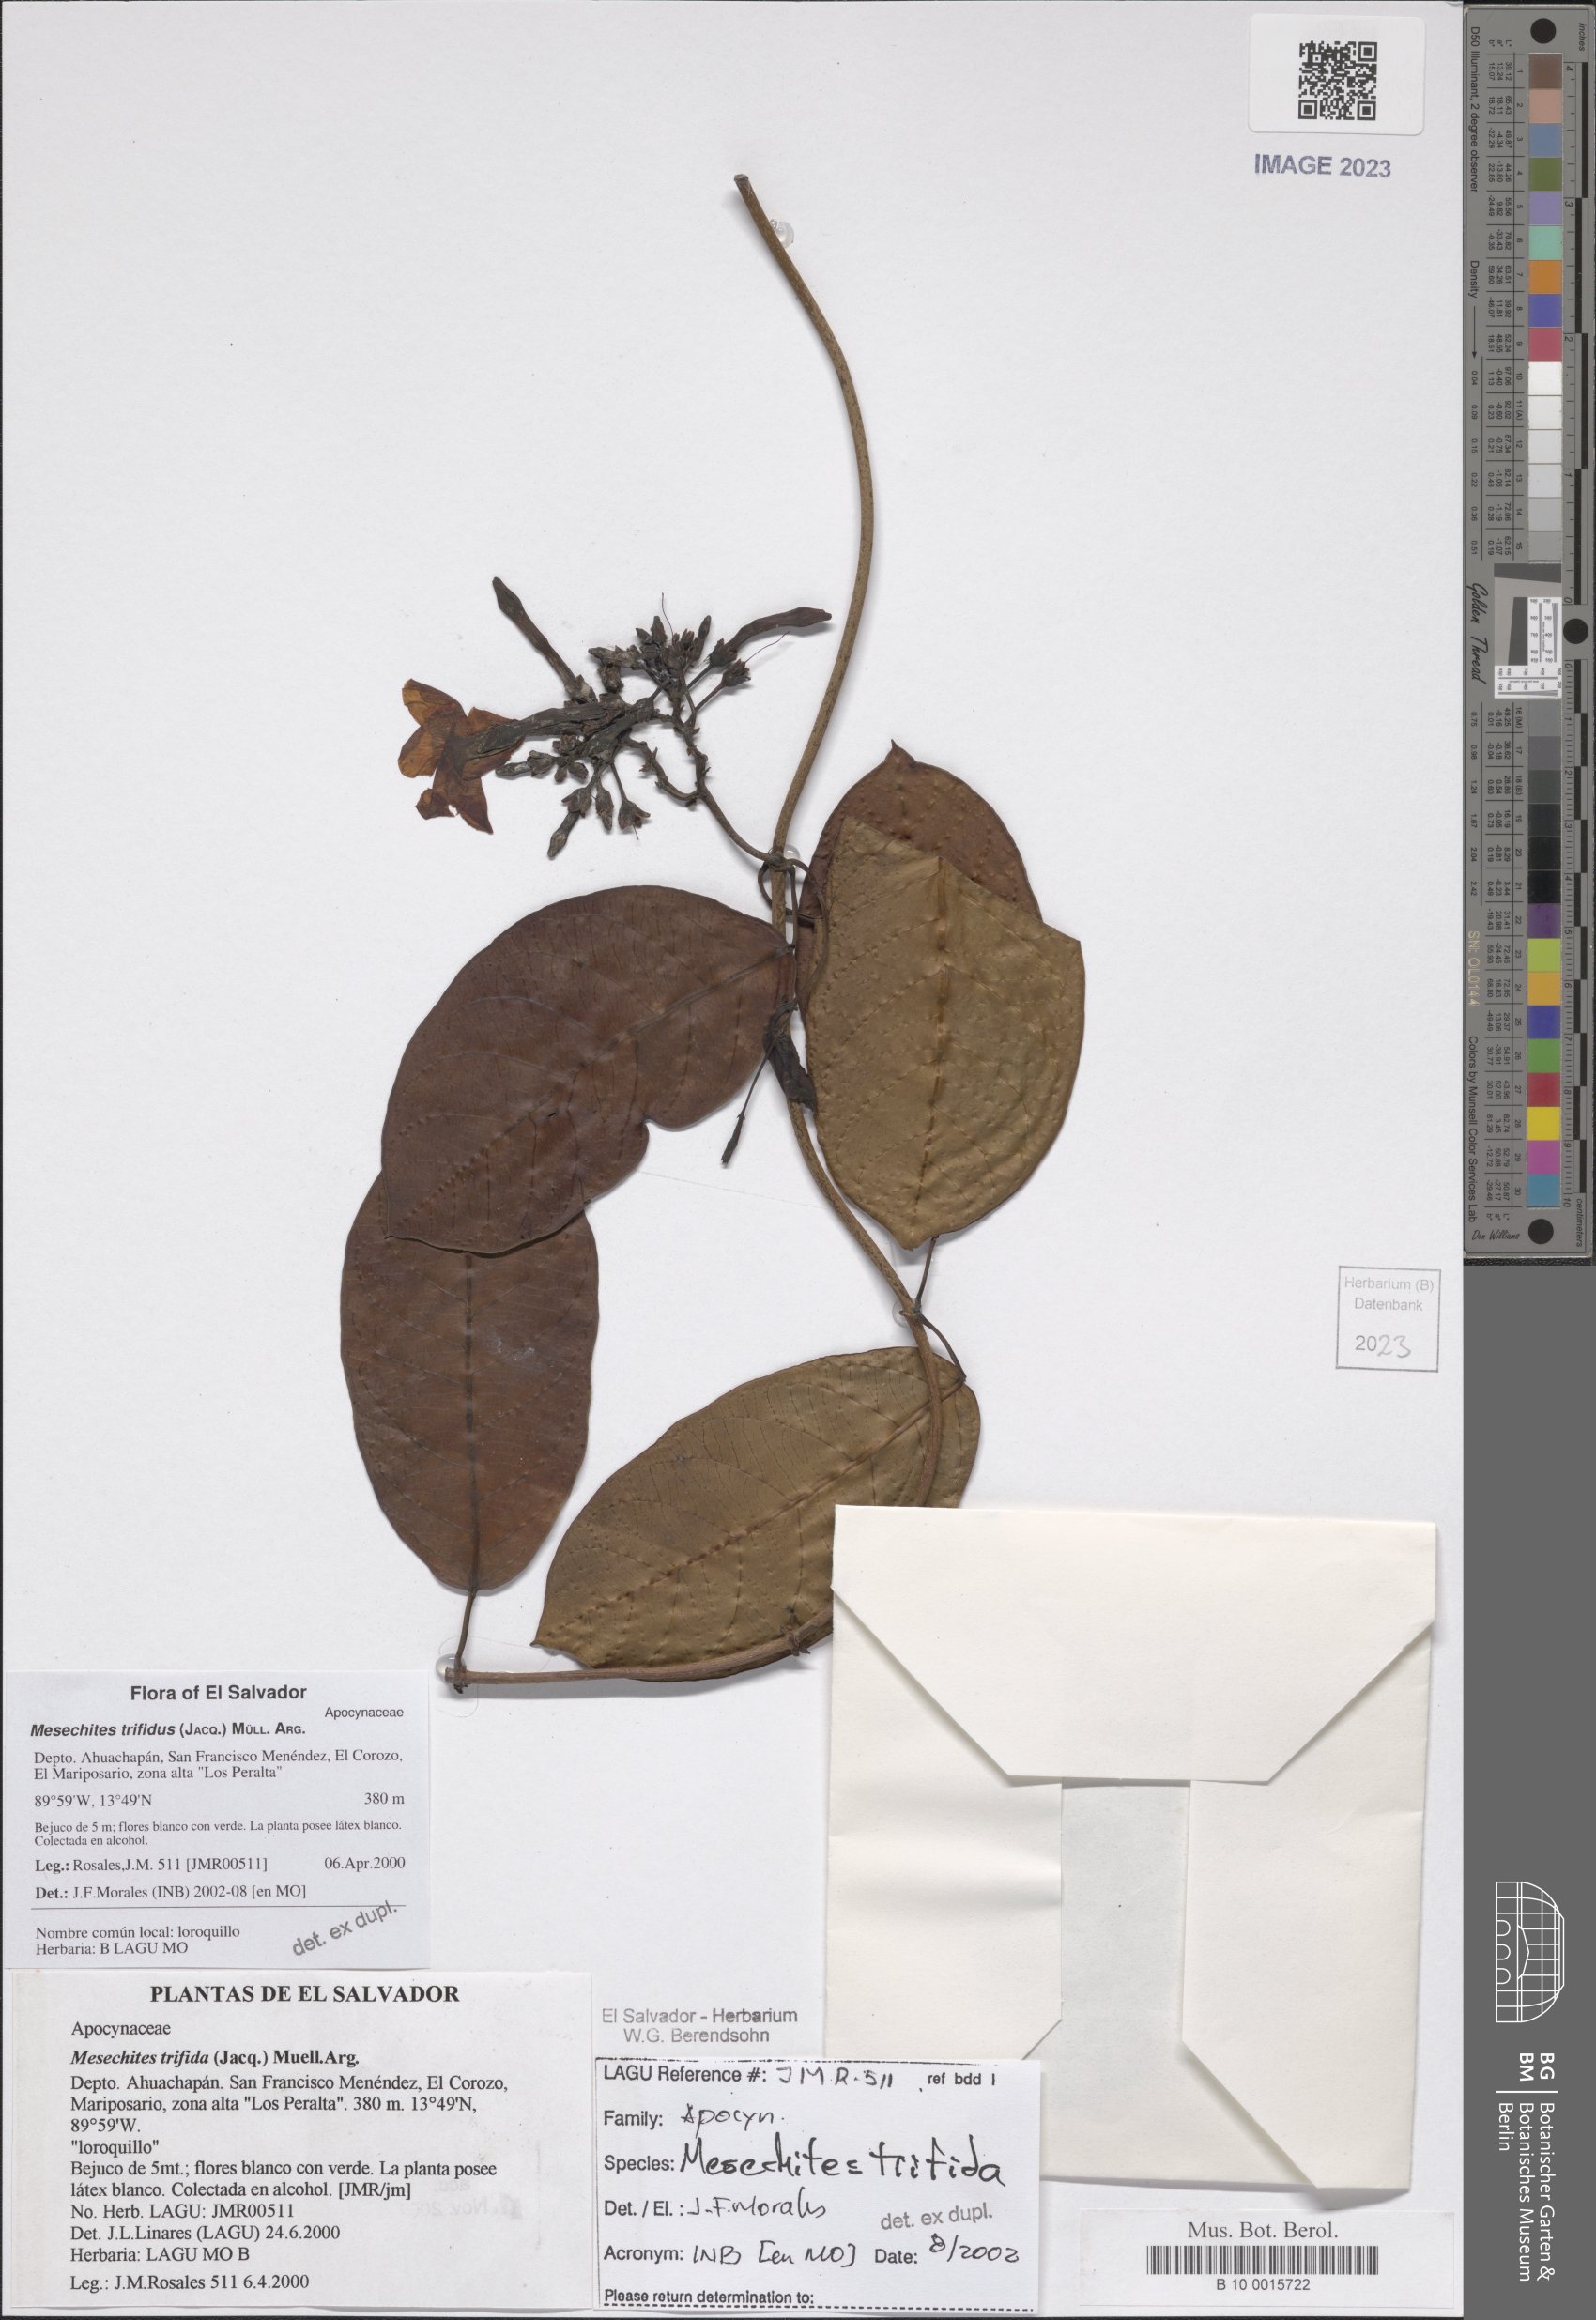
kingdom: Plantae
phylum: Tracheophyta
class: Magnoliopsida
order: Gentianales
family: Apocynaceae
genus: Mesechites
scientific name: Mesechites trifidus
